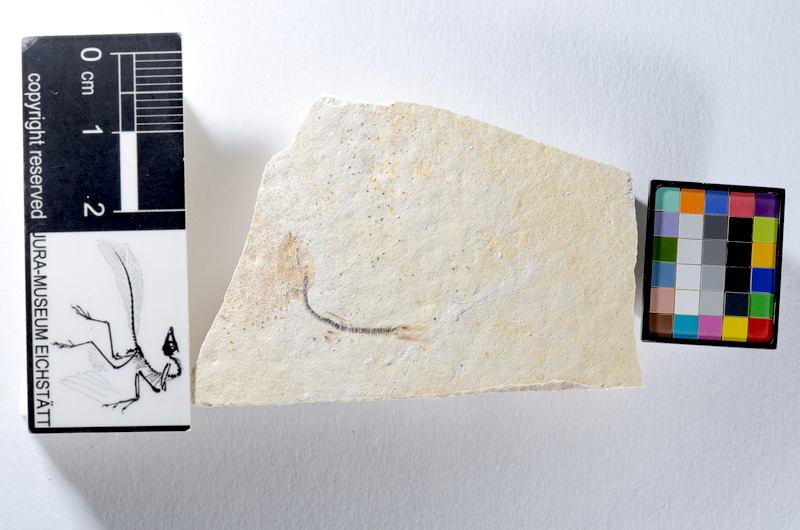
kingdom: Animalia
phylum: Chordata
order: Salmoniformes
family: Orthogonikleithridae
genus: Orthogonikleithrus
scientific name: Orthogonikleithrus hoelli
